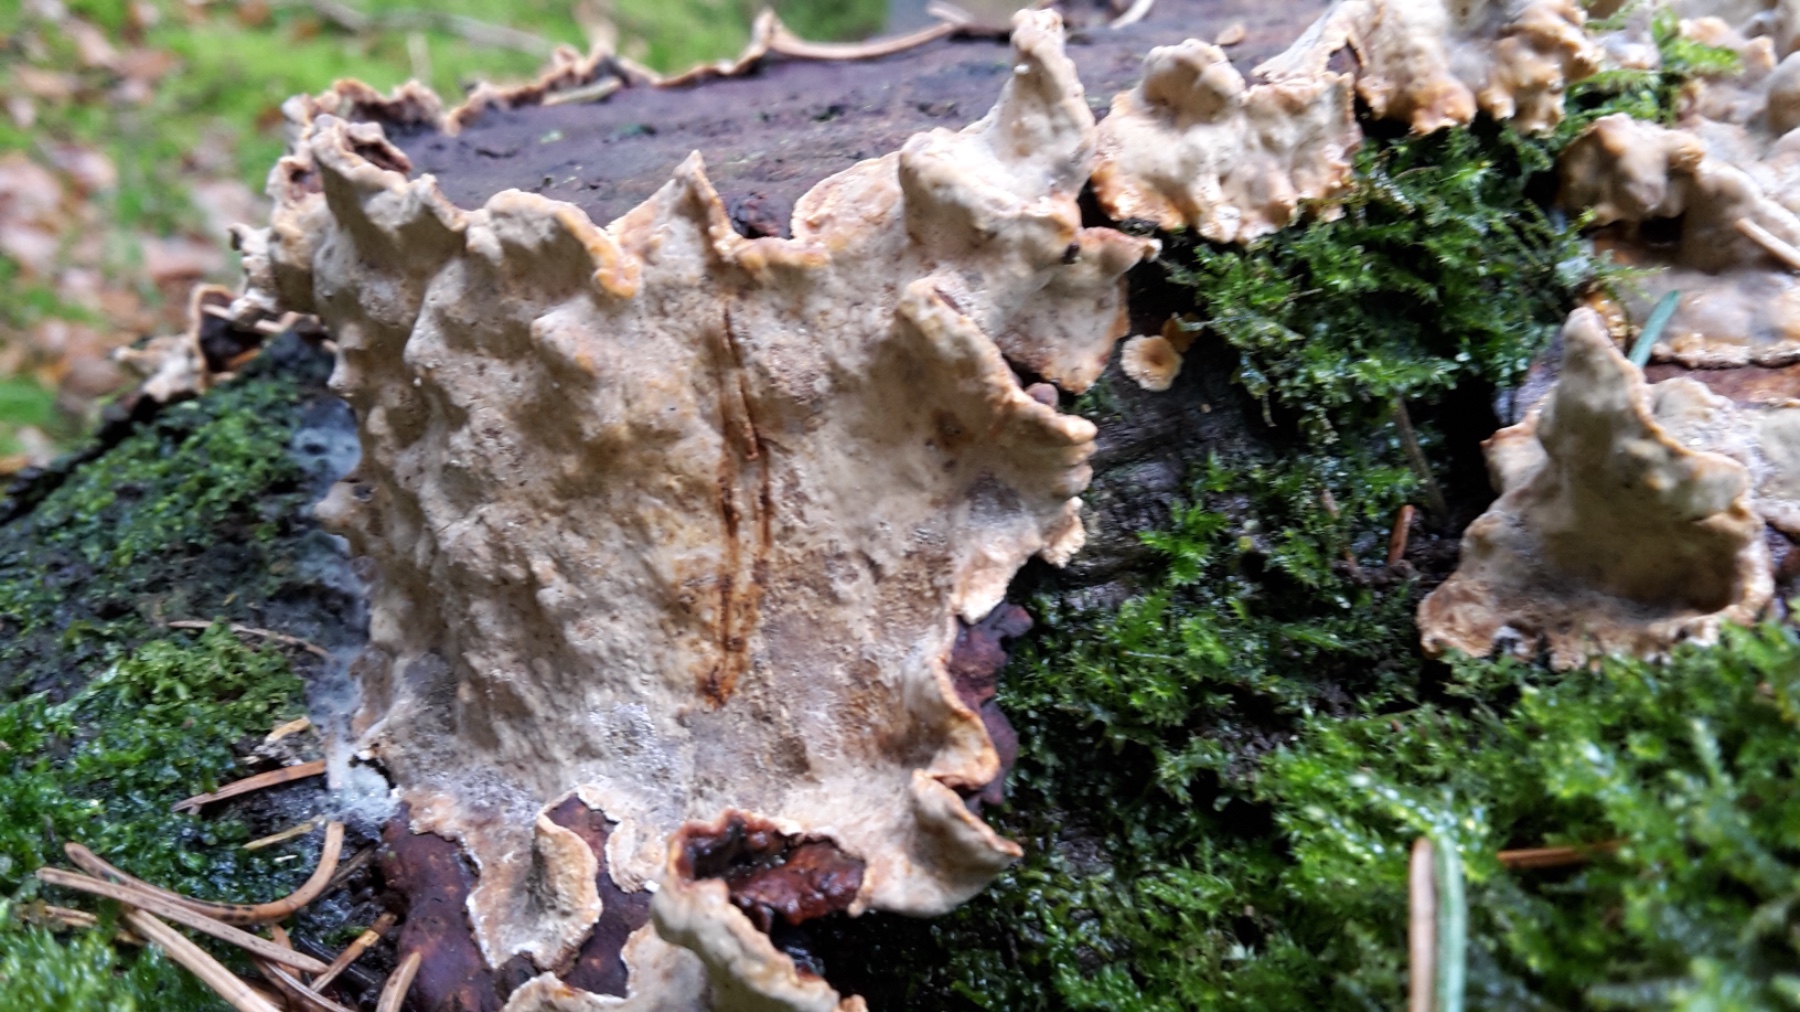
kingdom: Fungi
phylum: Basidiomycota
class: Agaricomycetes
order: Russulales
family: Stereaceae
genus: Stereum
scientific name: Stereum rugosum
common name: rynket lædersvamp
